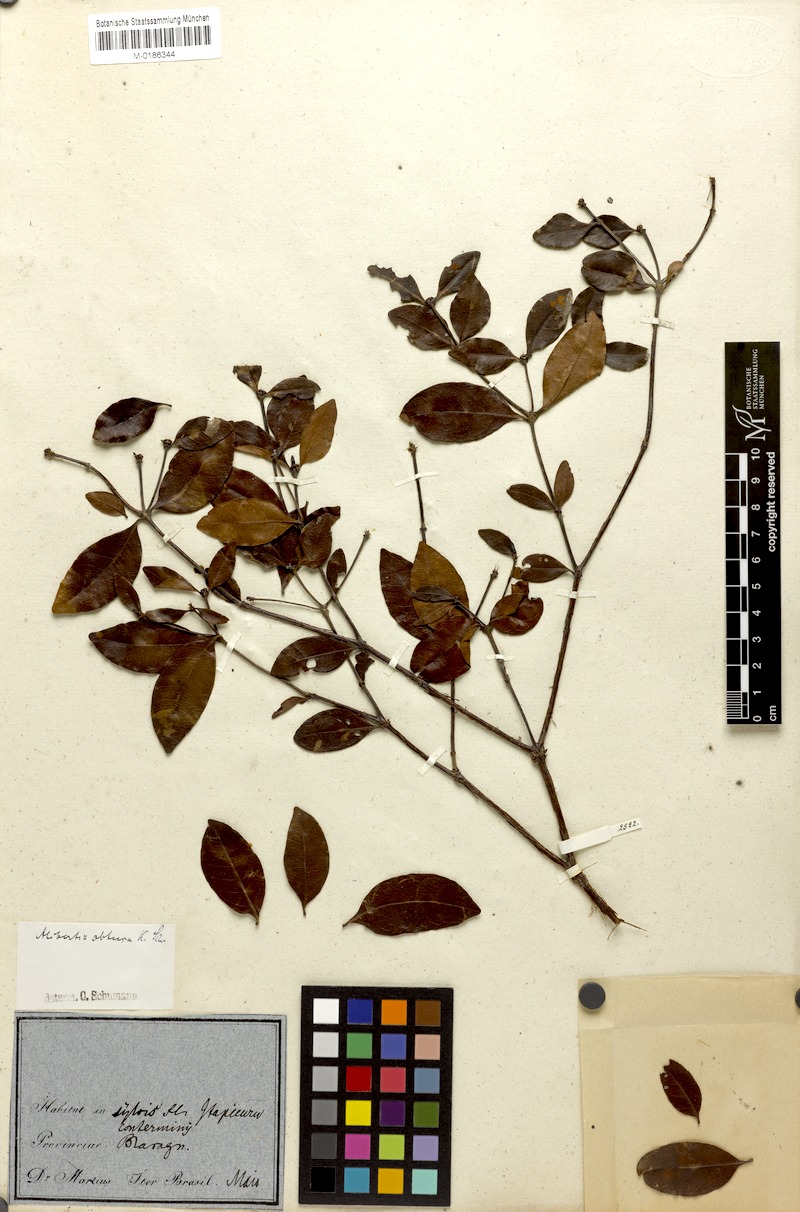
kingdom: Plantae
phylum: Tracheophyta
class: Magnoliopsida
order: Gentianales
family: Rubiaceae
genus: Cordiera
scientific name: Cordiera obtusa
